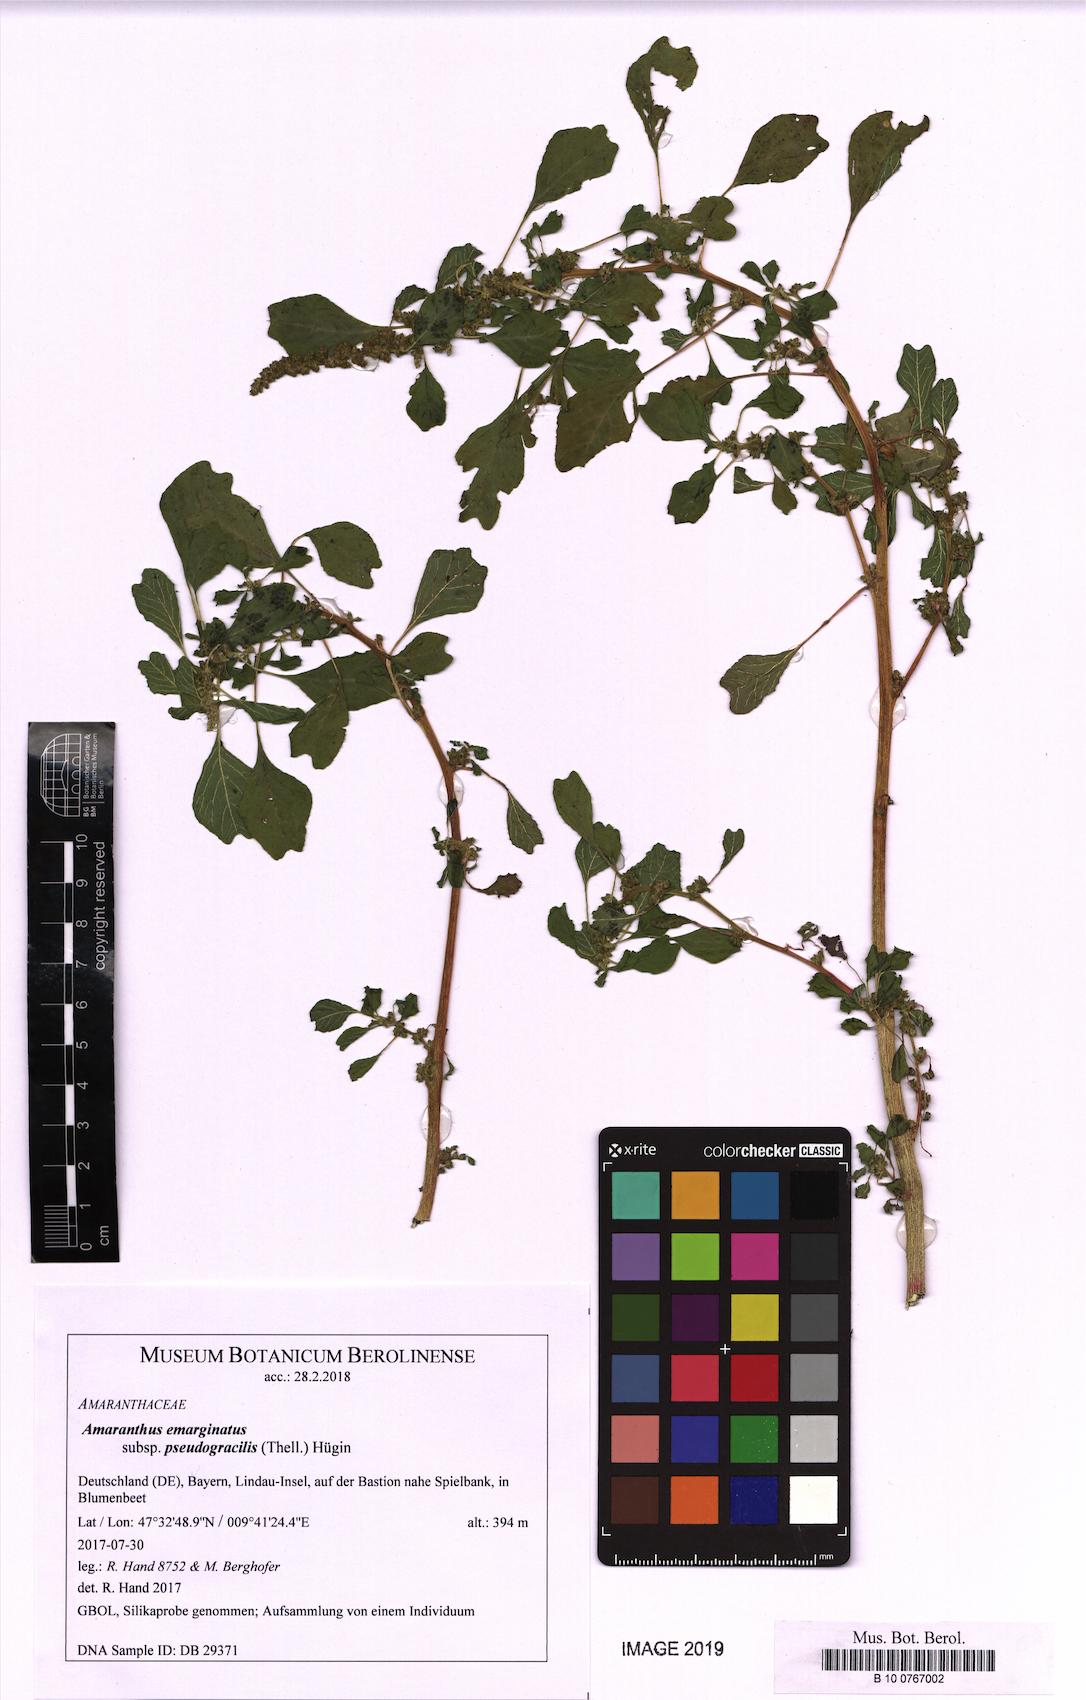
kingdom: Plantae
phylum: Tracheophyta
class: Magnoliopsida
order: Caryophyllales
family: Amaranthaceae
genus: Amaranthus
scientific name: Amaranthus emarginatus
